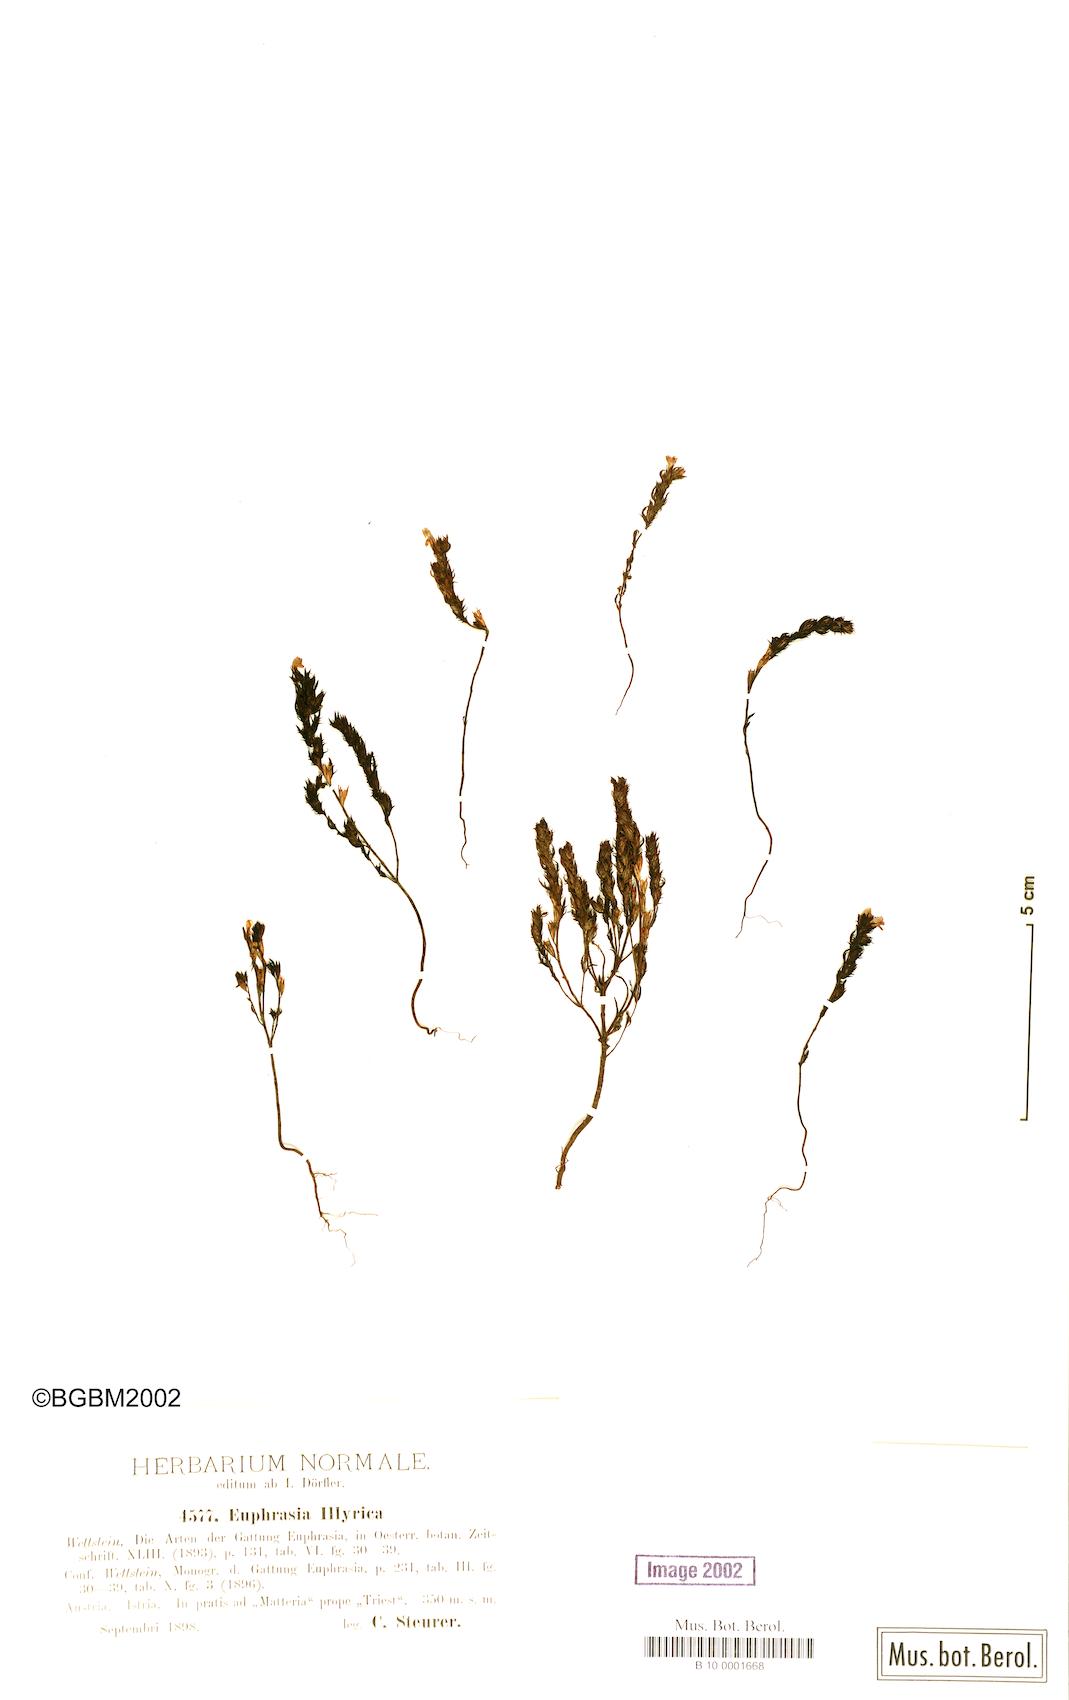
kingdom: Plantae
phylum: Tracheophyta
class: Magnoliopsida
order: Lamiales
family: Orobanchaceae
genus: Euphrasia
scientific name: Euphrasia illyrica
